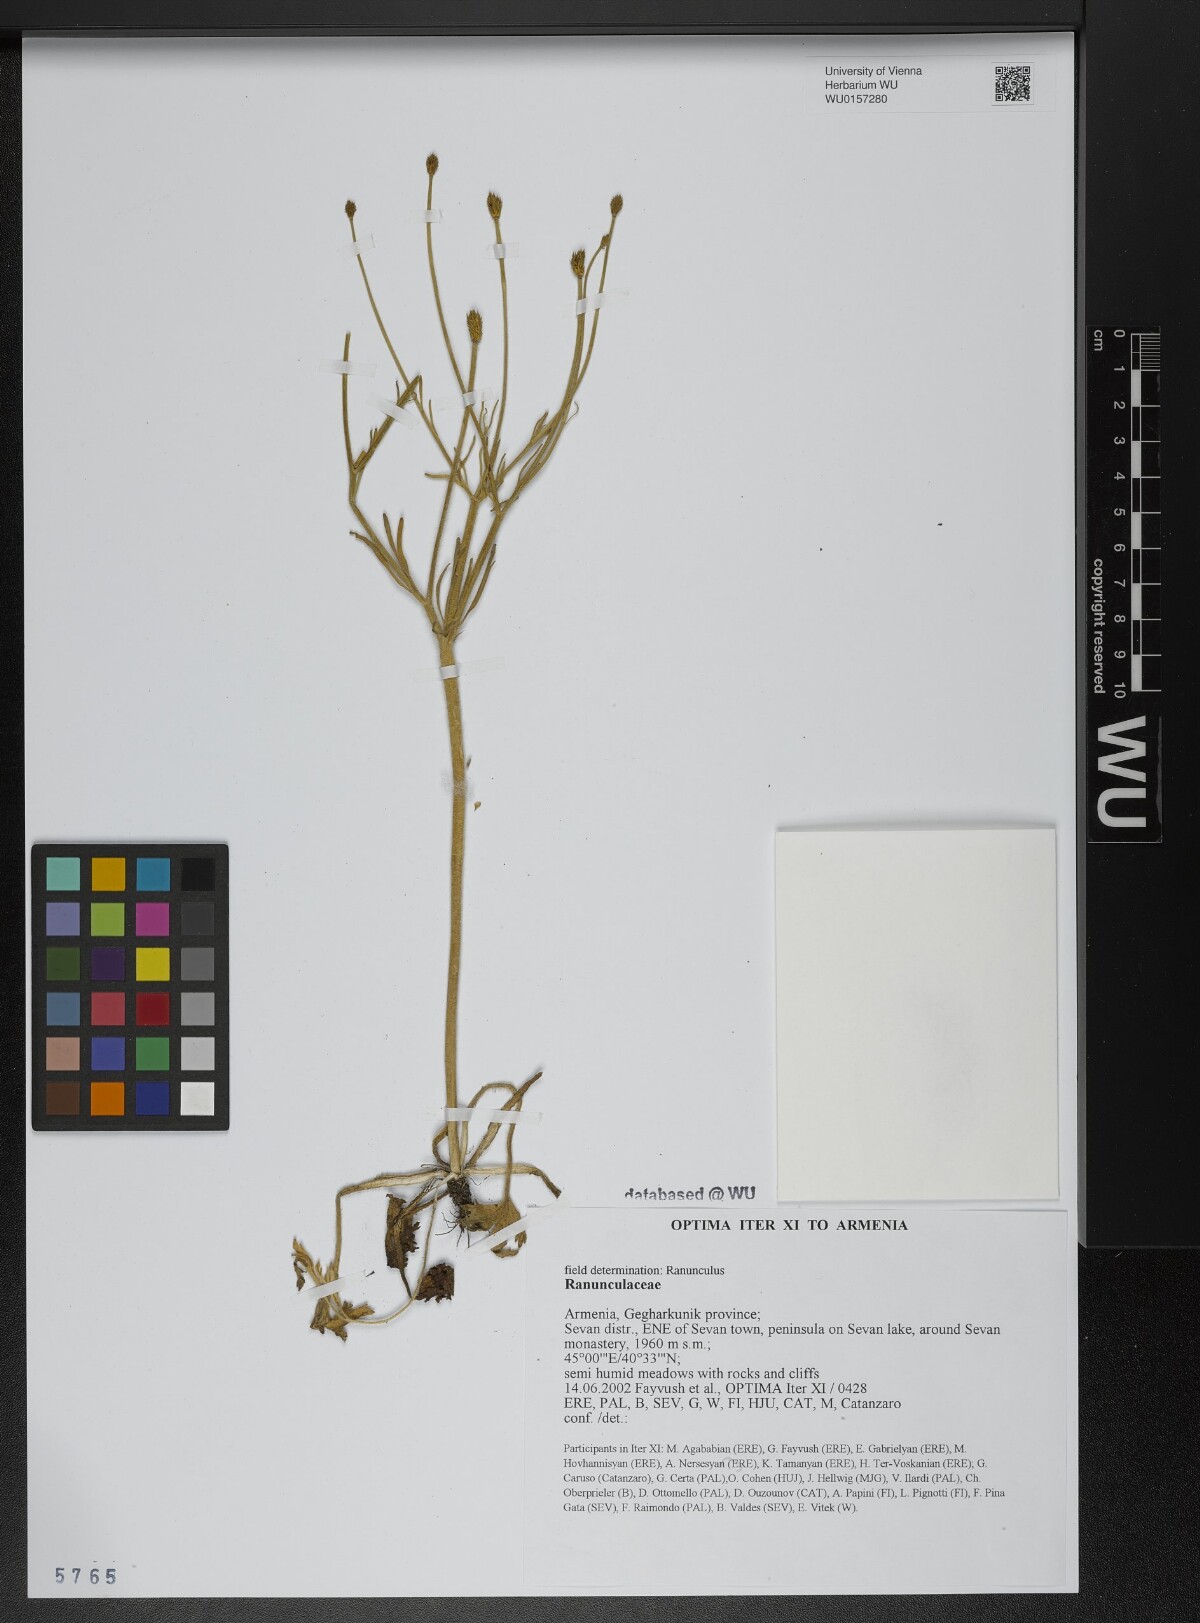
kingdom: Plantae
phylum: Tracheophyta
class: Magnoliopsida
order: Ranunculales
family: Ranunculaceae
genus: Ranunculus
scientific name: Ranunculus
